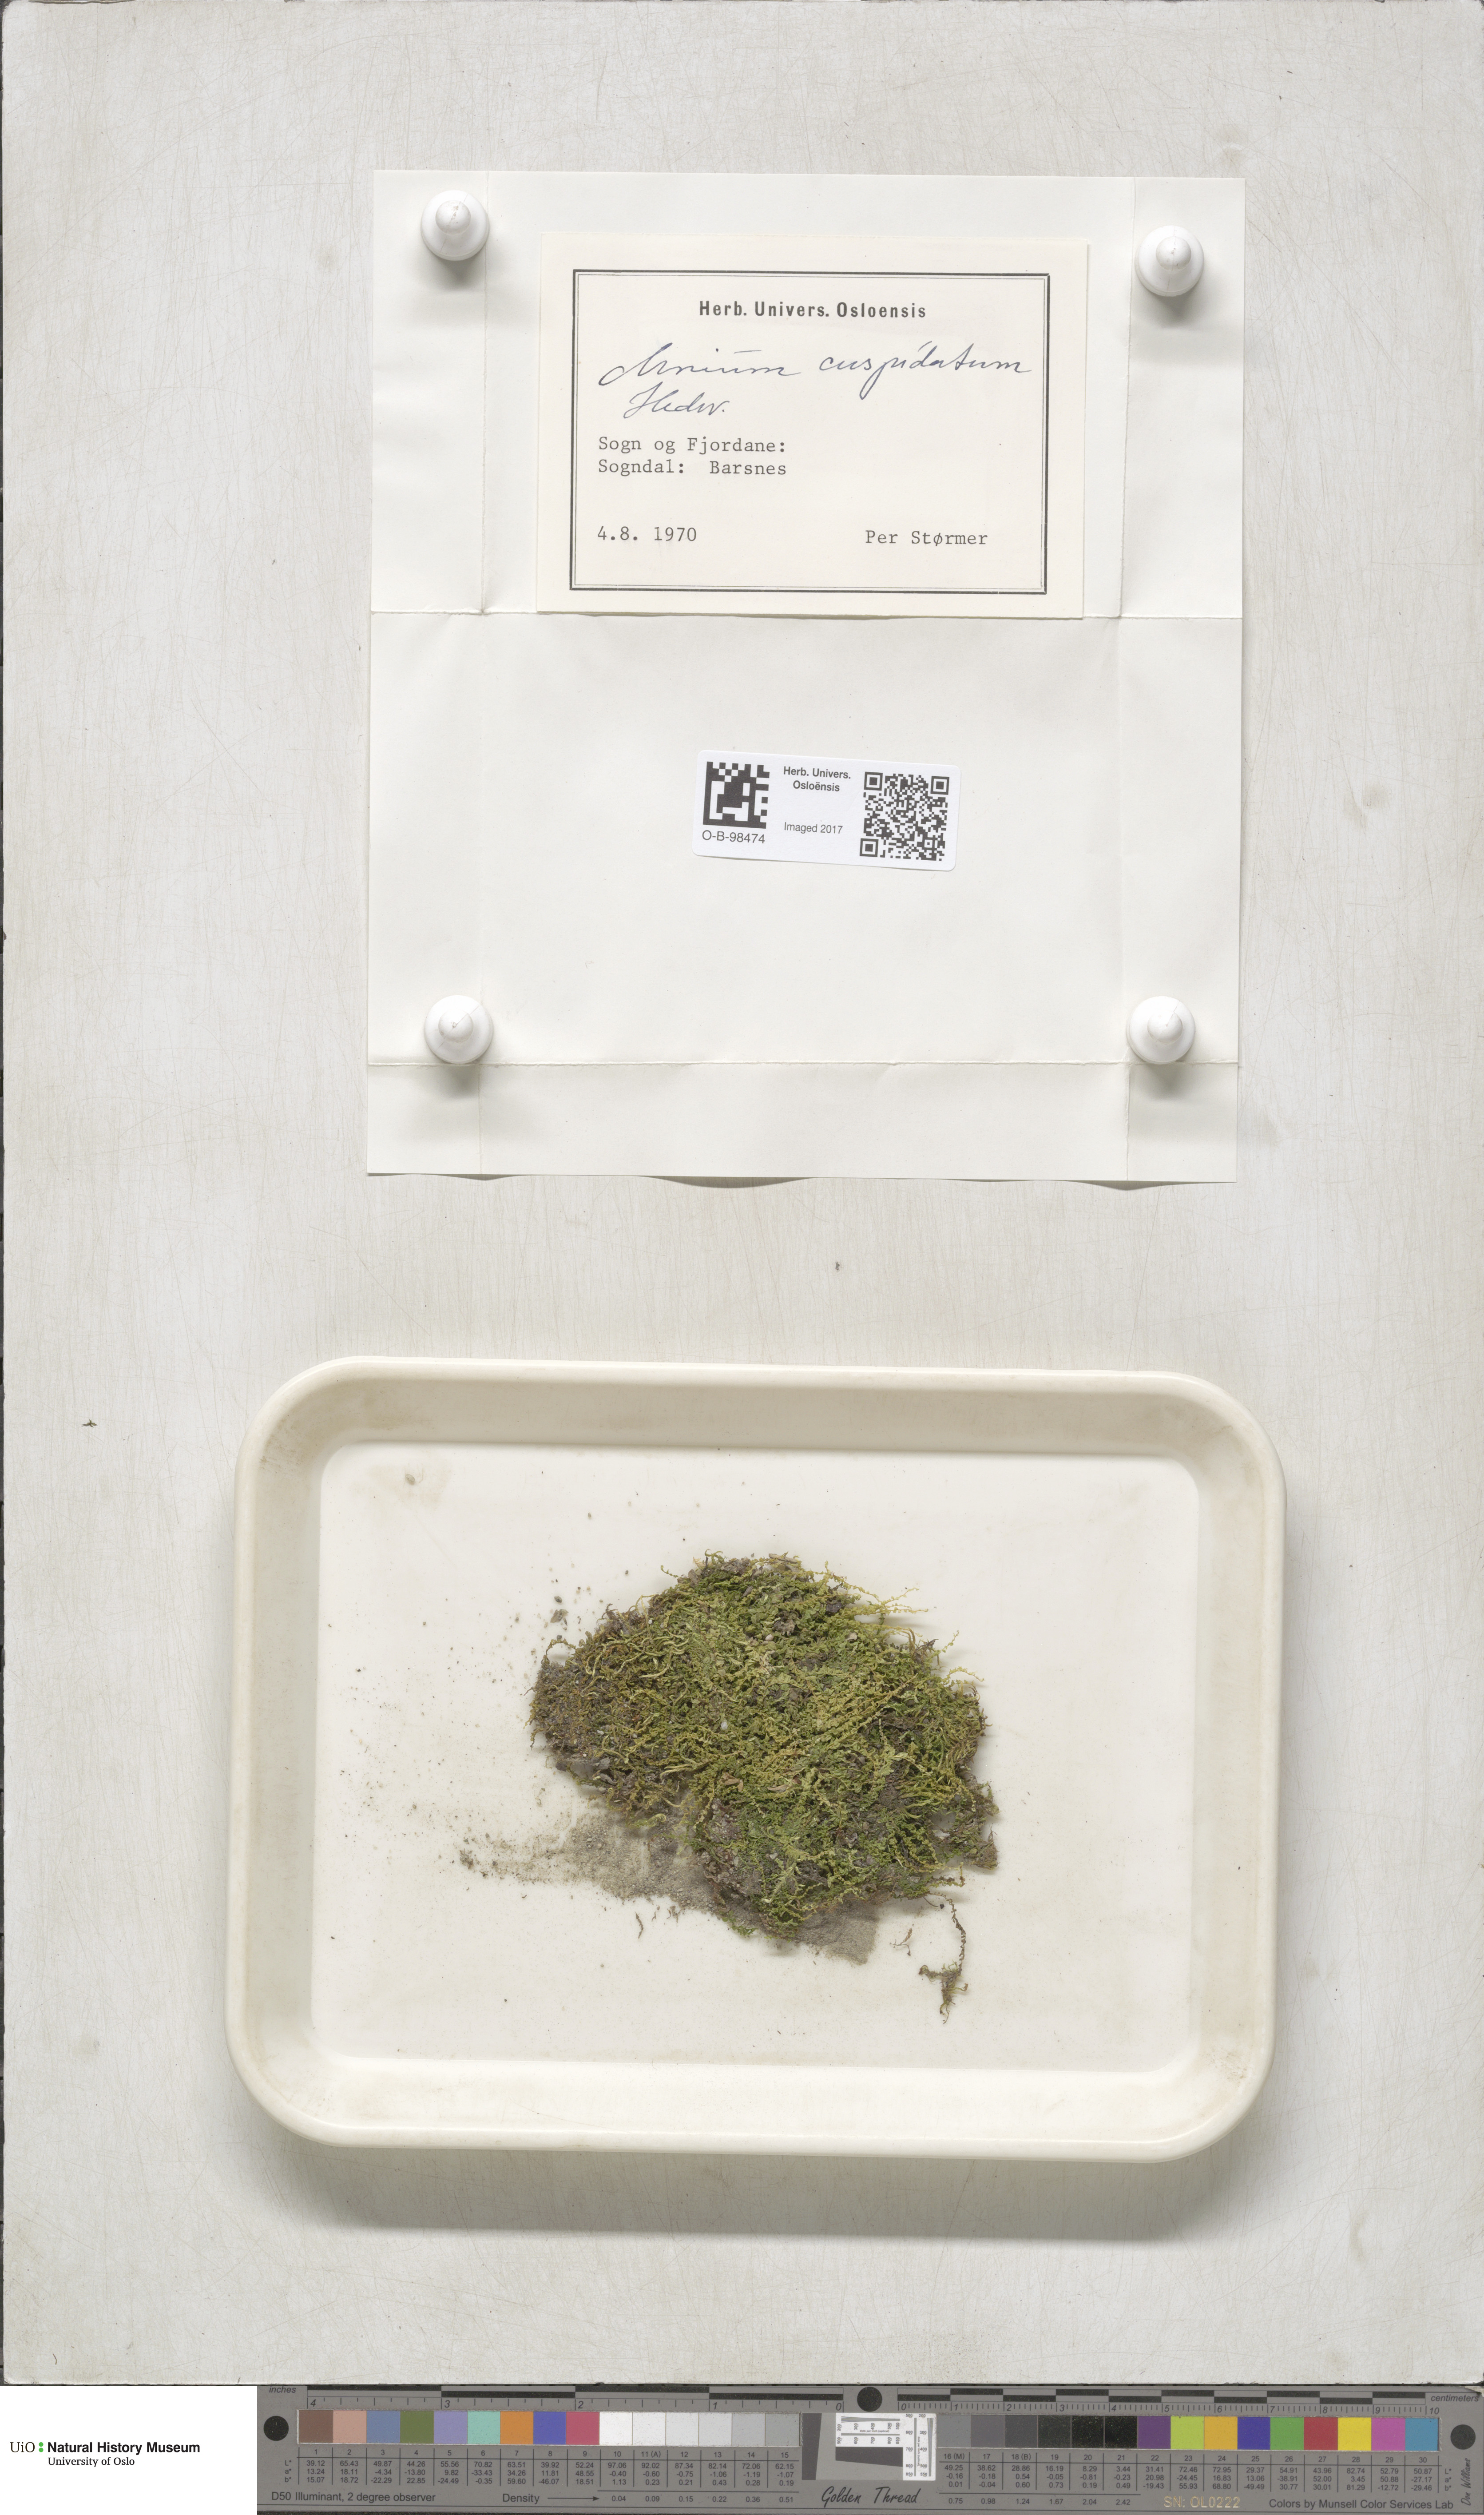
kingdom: Plantae
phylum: Bryophyta
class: Bryopsida
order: Bryales
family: Mniaceae
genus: Plagiomnium
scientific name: Plagiomnium cuspidatum
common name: Woodsy leafy moss
